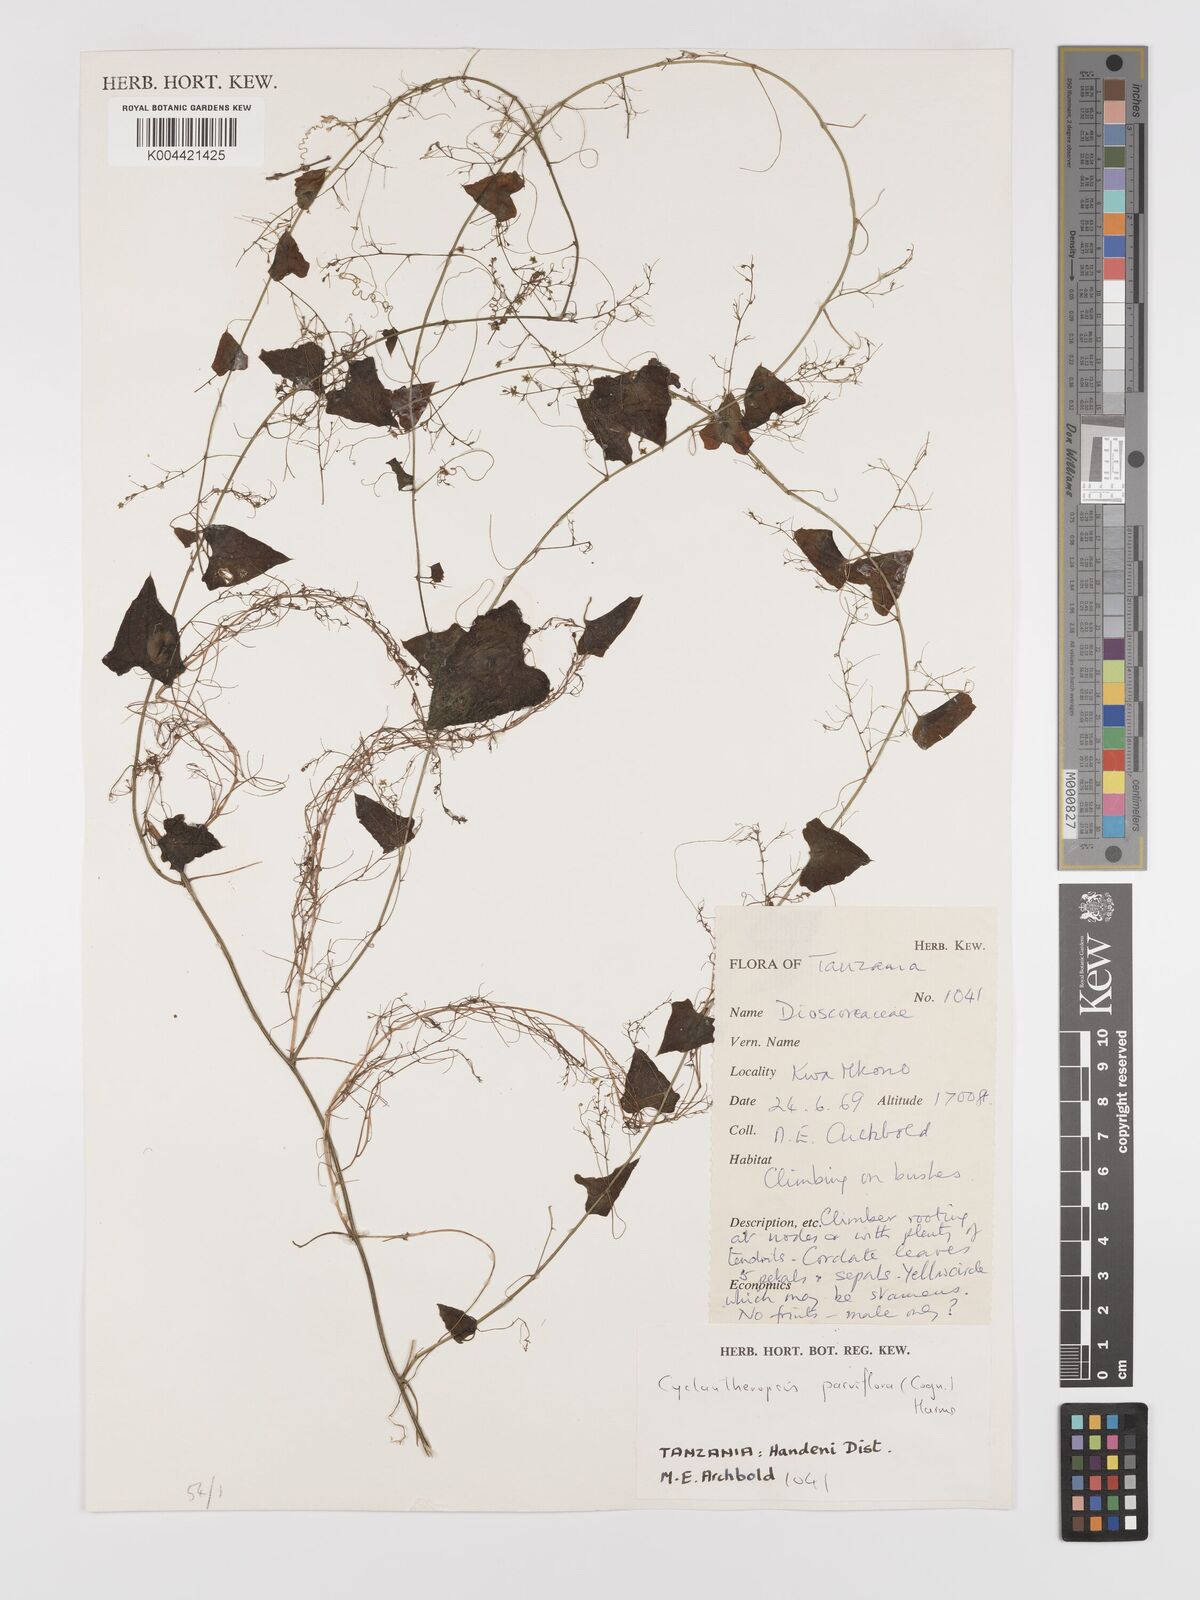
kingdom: Plantae
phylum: Tracheophyta
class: Magnoliopsida
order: Cucurbitales
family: Cucurbitaceae
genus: Cyclantheropsis
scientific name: Cyclantheropsis parviflora
